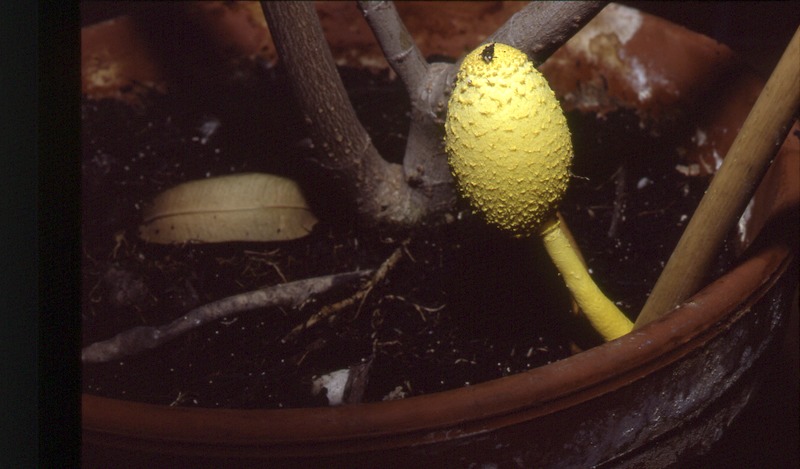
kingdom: Fungi
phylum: Basidiomycota
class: Agaricomycetes
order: Agaricales
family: Agaricaceae
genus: Leucocoprinus
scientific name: Leucocoprinus birnbaumii
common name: Plantpot dapperling
